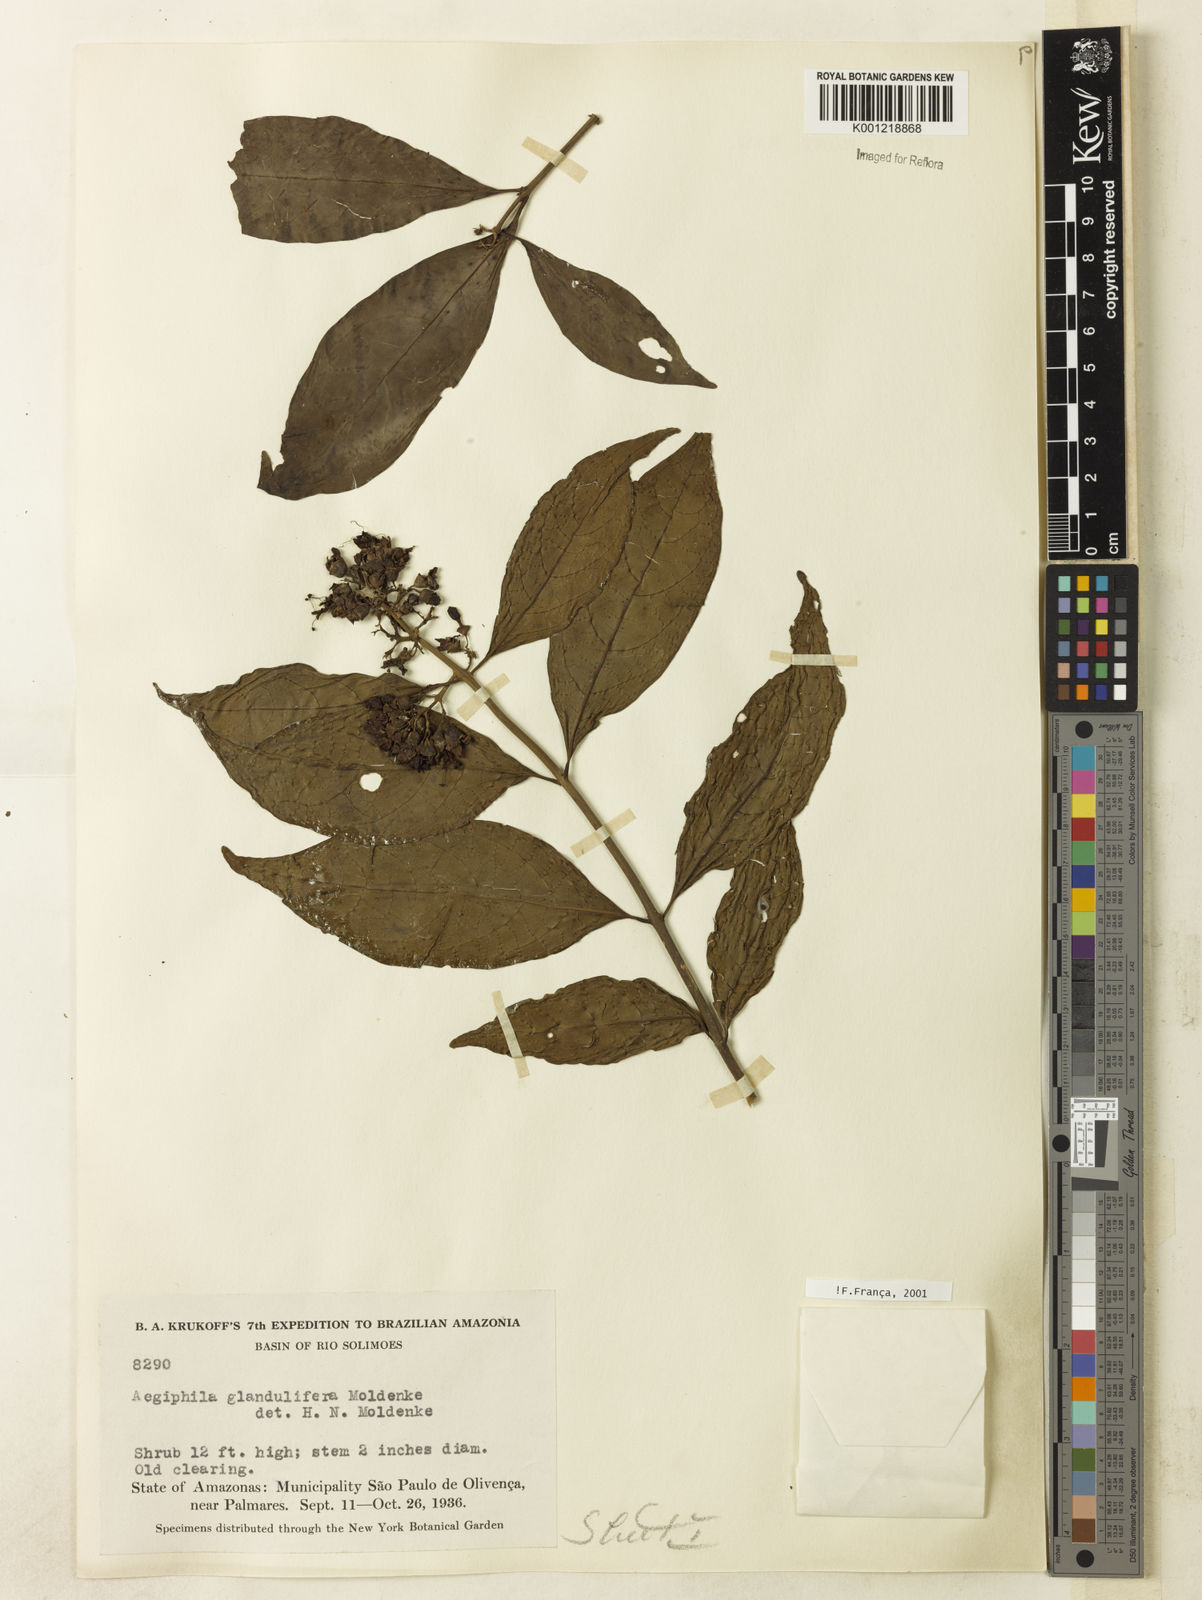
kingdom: Plantae
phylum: Tracheophyta
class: Magnoliopsida
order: Lamiales
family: Lamiaceae
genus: Aegiphila
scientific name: Aegiphila panamensis
